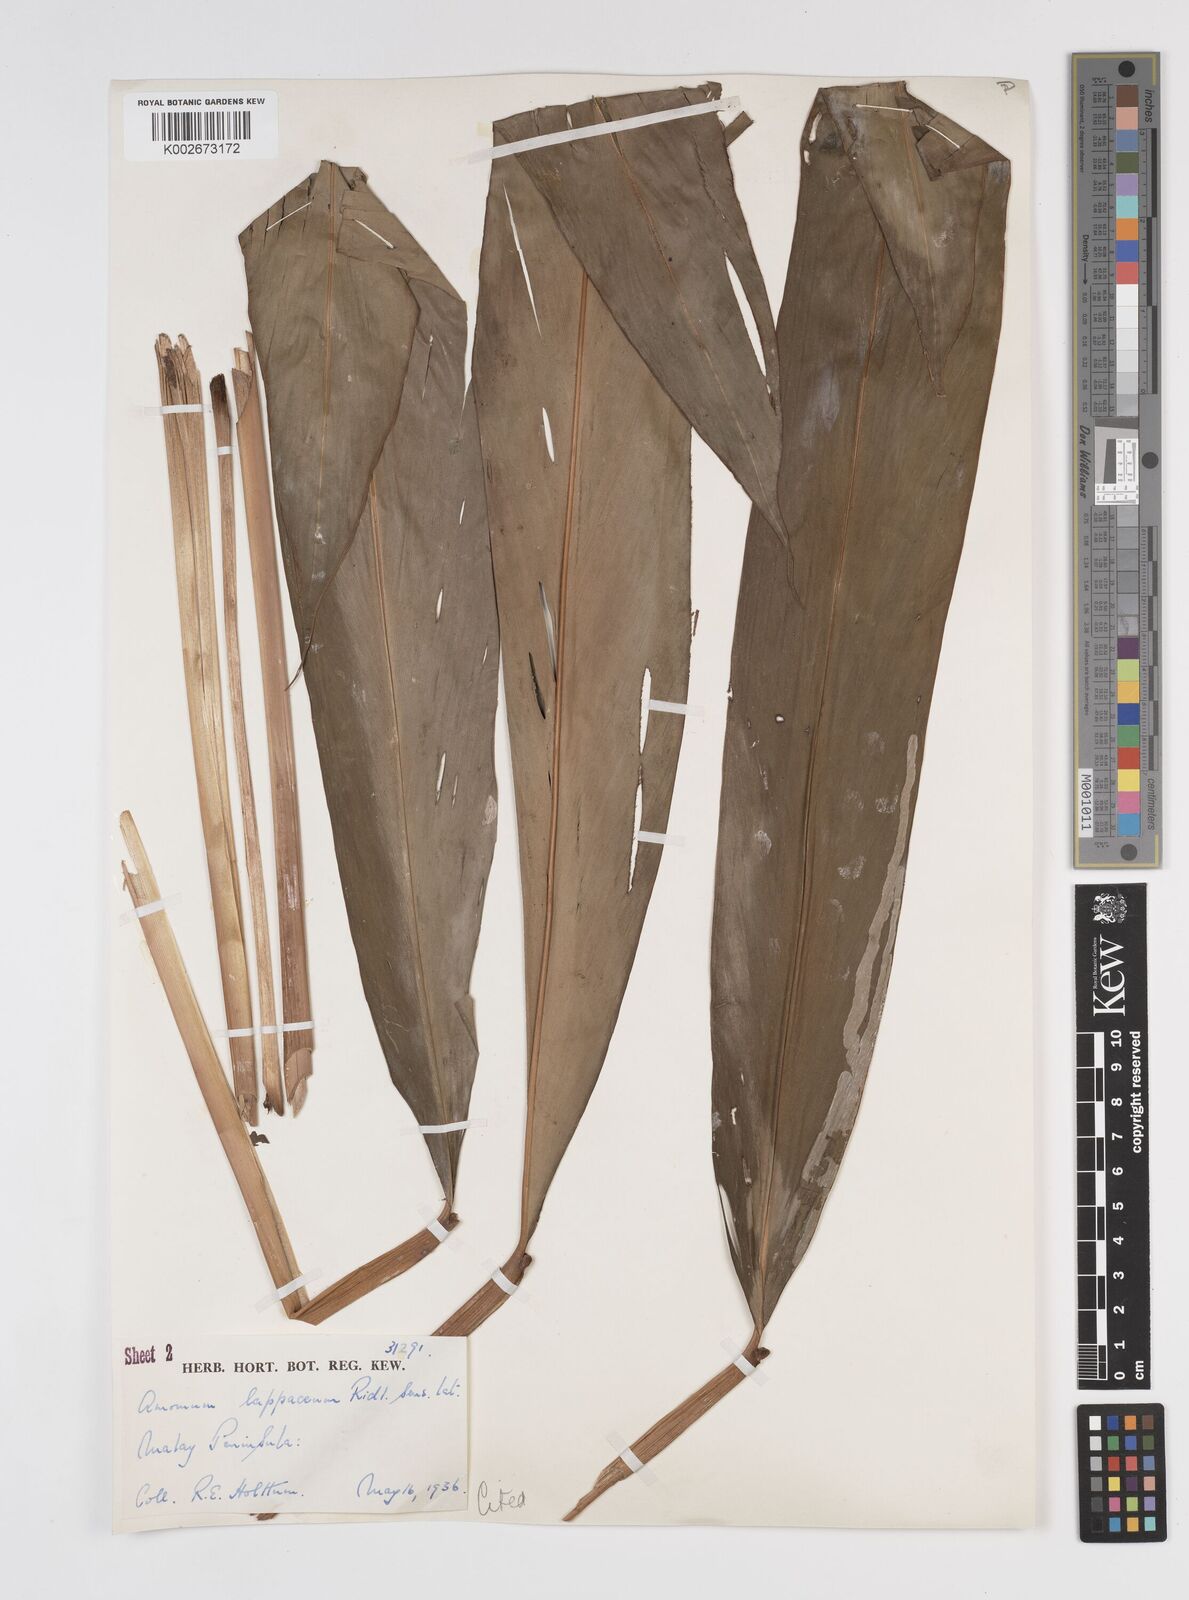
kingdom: Plantae
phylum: Tracheophyta
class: Liliopsida
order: Zingiberales
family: Zingiberaceae
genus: Meistera
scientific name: Meistera lappacea
